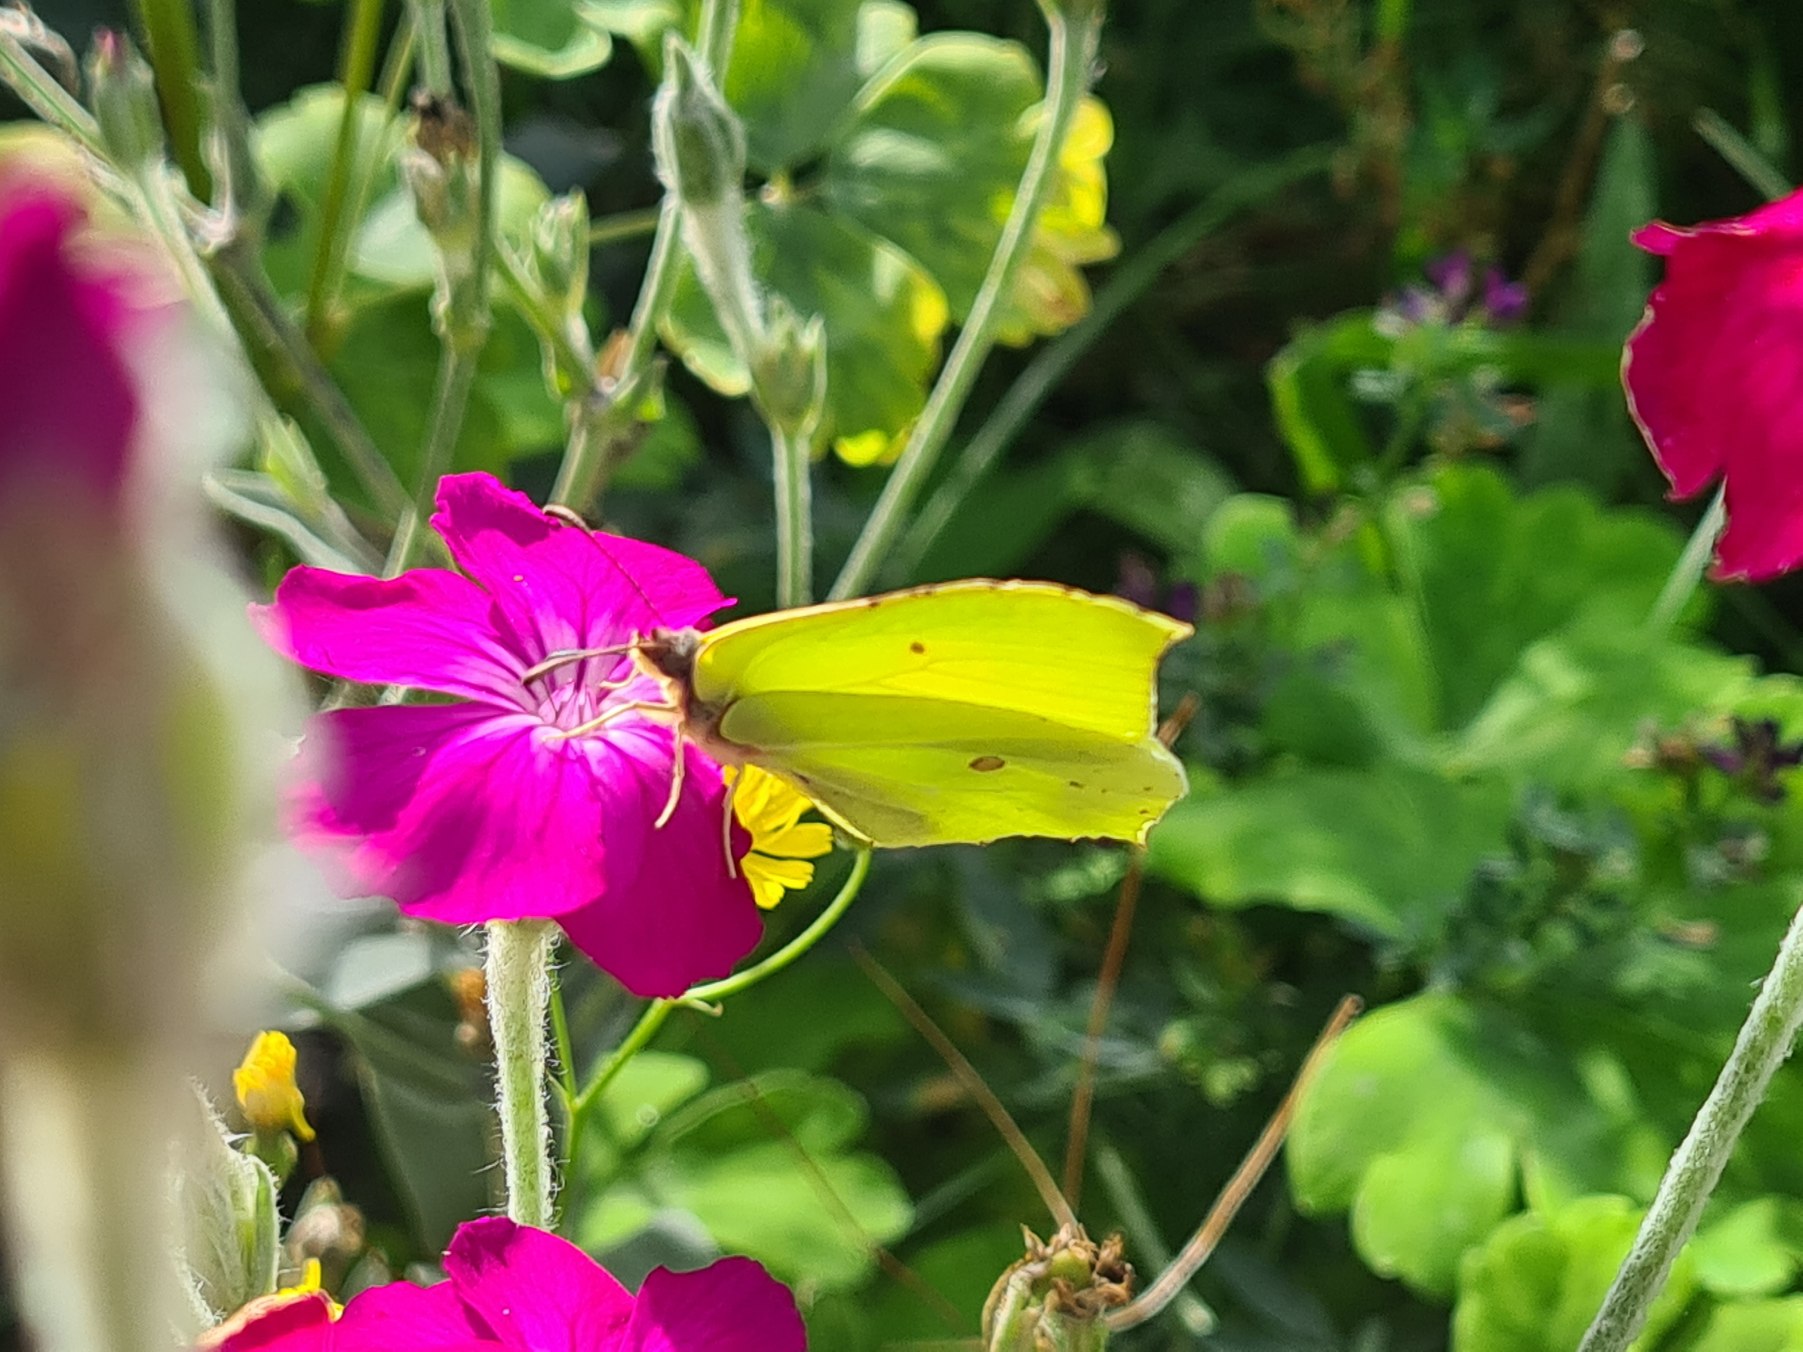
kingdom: Animalia
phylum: Arthropoda
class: Insecta
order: Lepidoptera
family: Pieridae
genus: Gonepteryx
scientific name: Gonepteryx rhamni
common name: Citronsommerfugl
